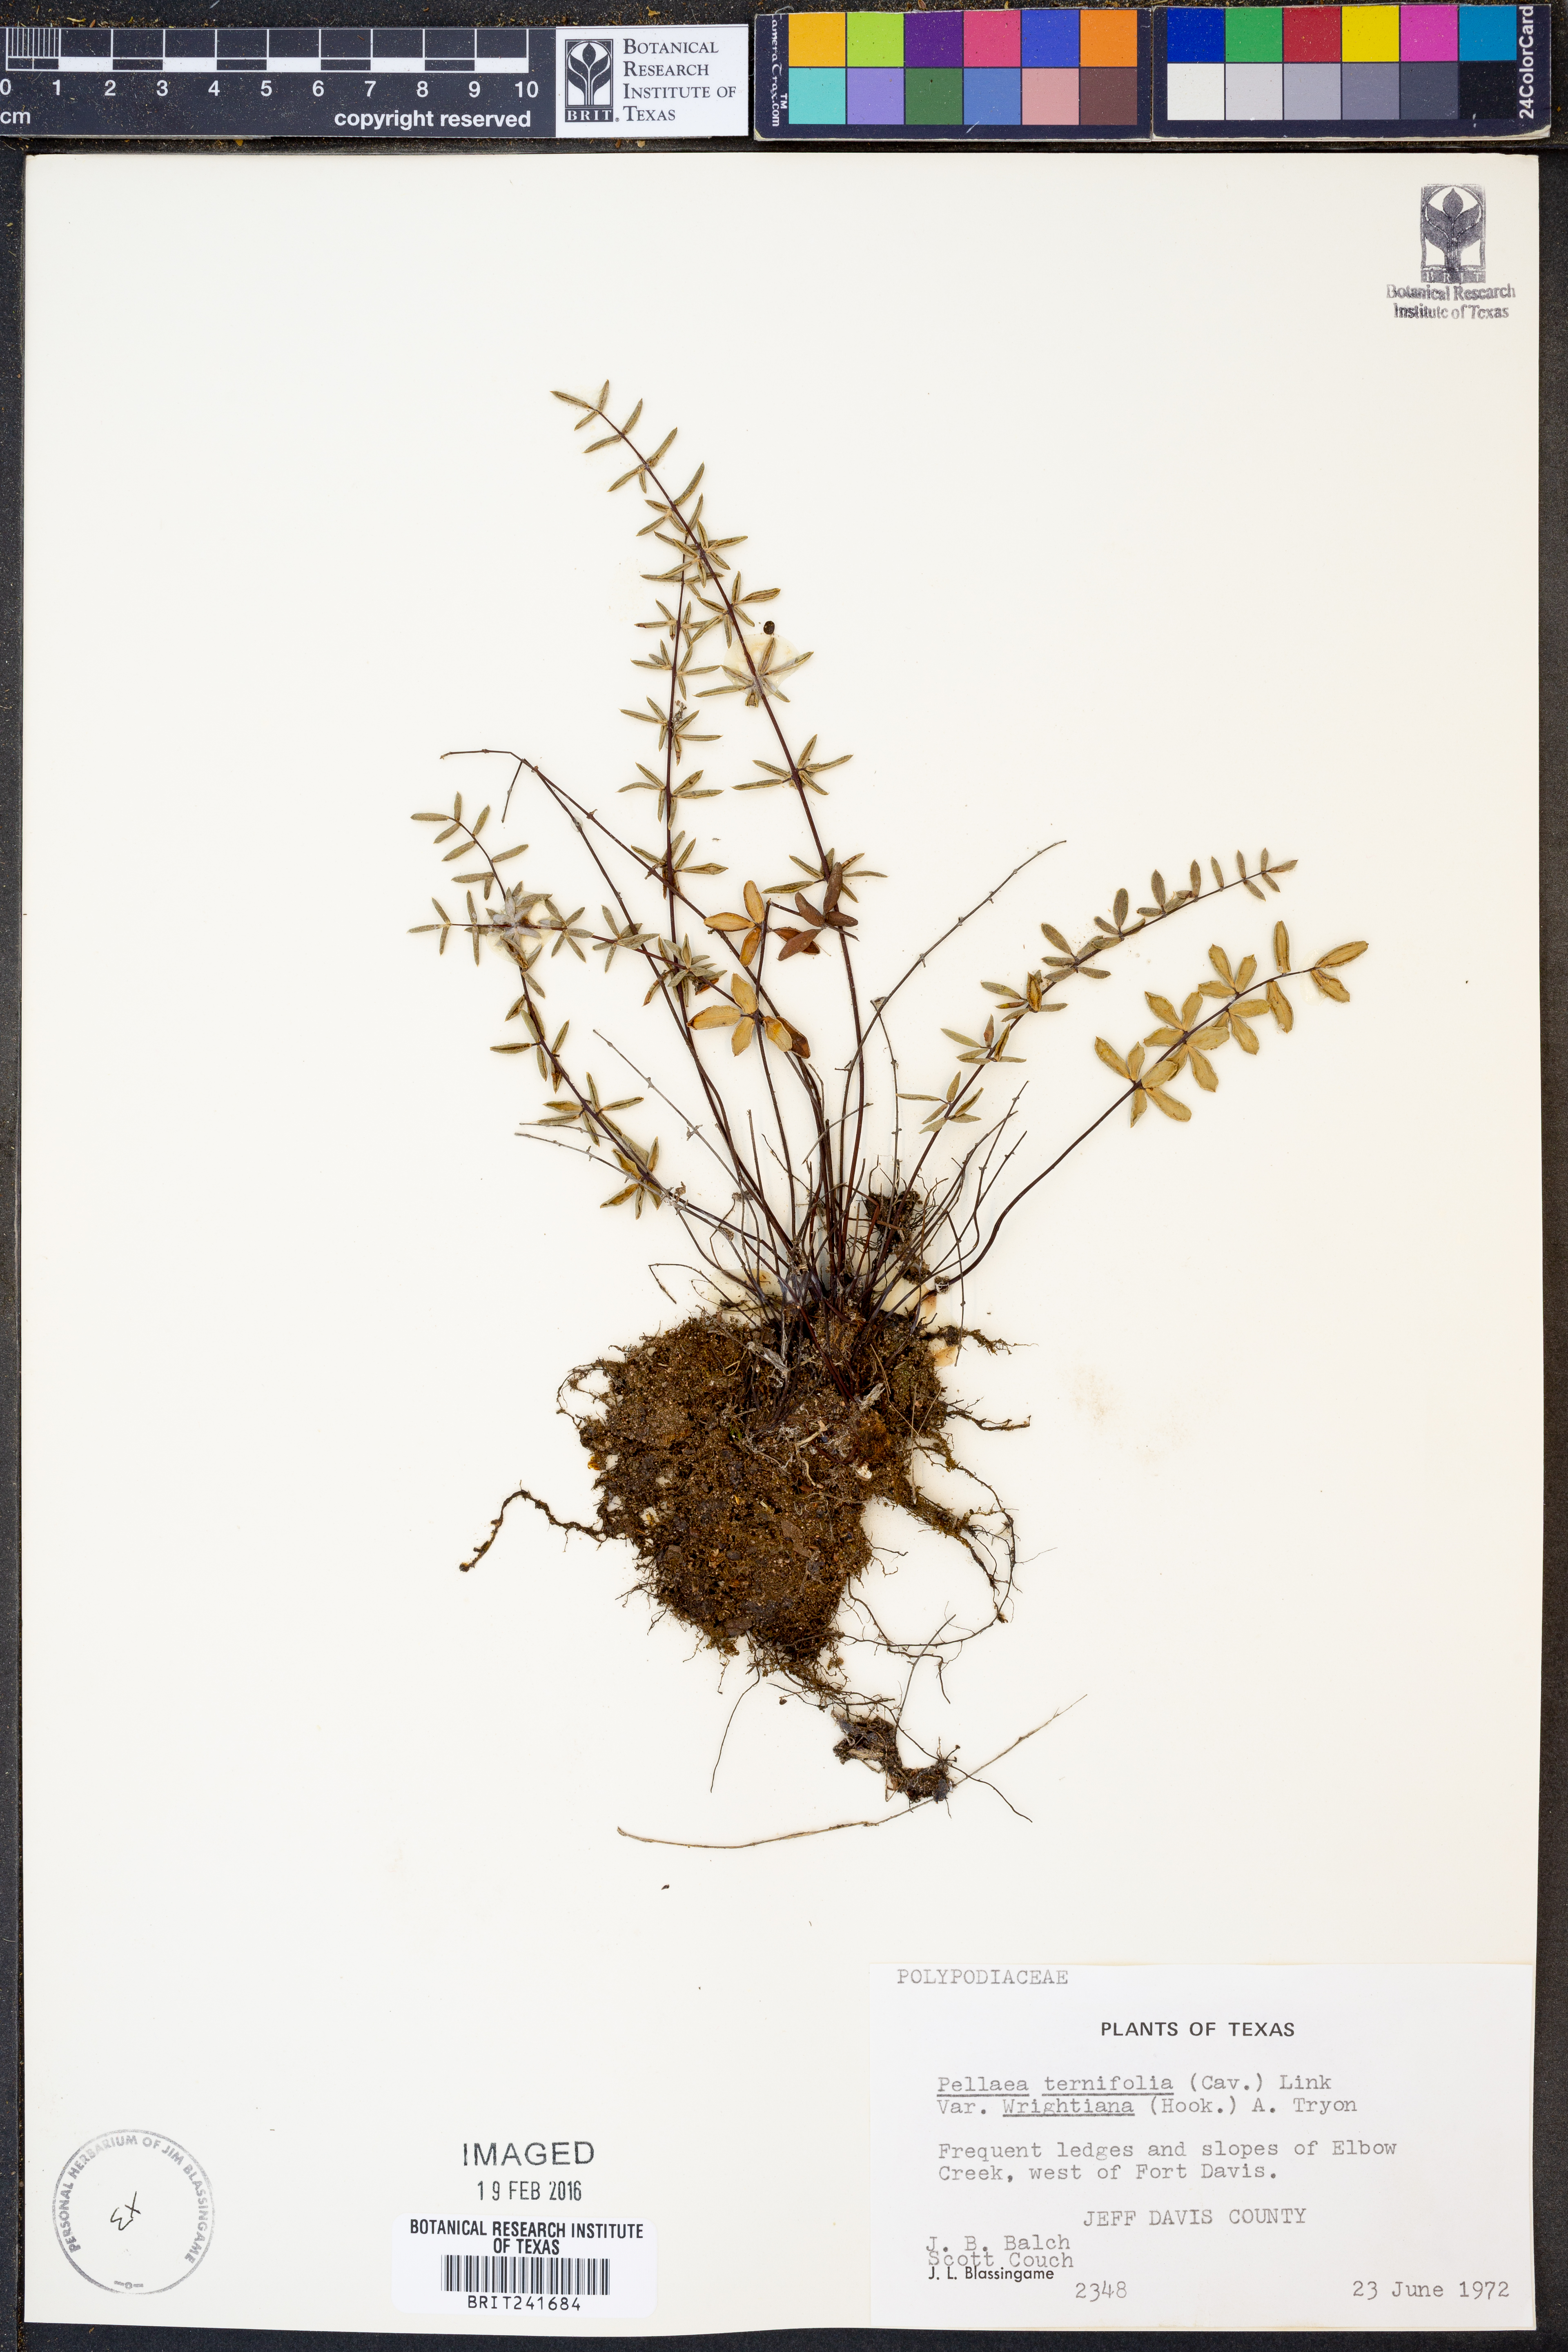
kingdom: Plantae
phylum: Tracheophyta
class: Polypodiopsida
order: Polypodiales
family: Pteridaceae
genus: Pellaea
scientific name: Pellaea wrightiana
